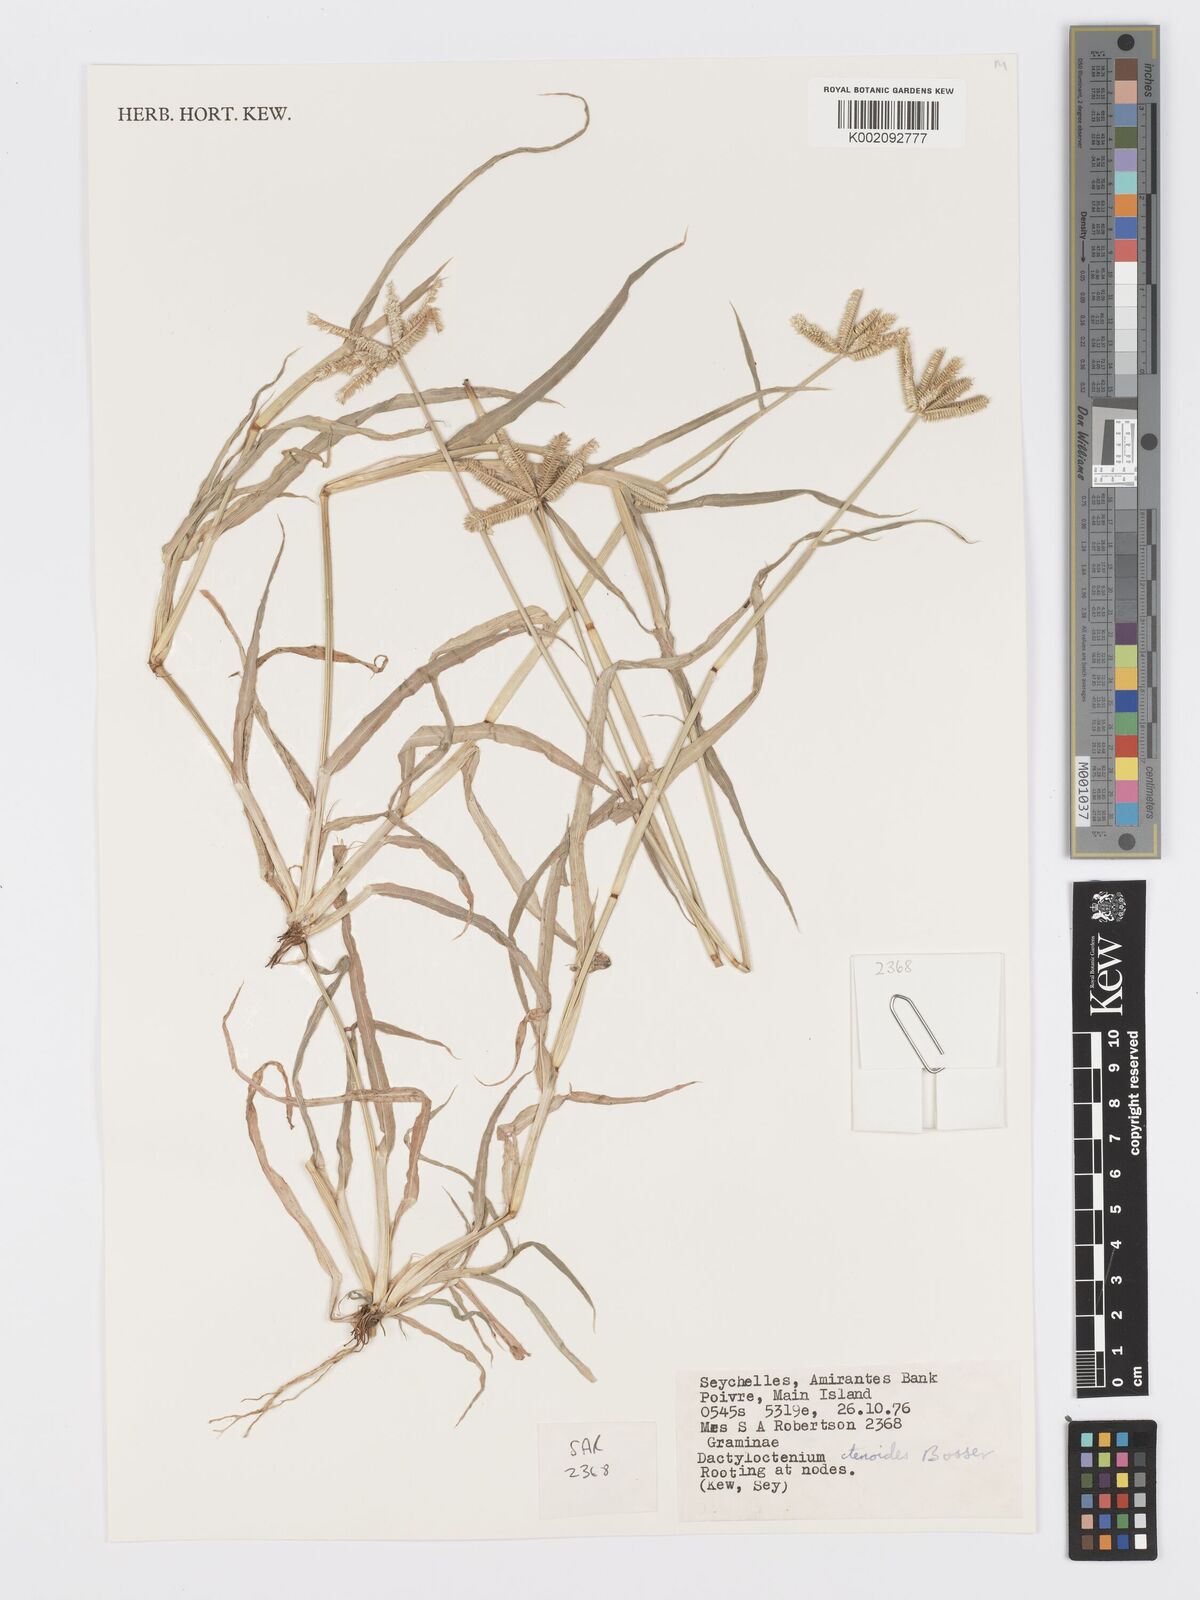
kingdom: Plantae
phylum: Tracheophyta
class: Liliopsida
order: Poales
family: Poaceae
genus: Dactyloctenium
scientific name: Dactyloctenium ctenoides
